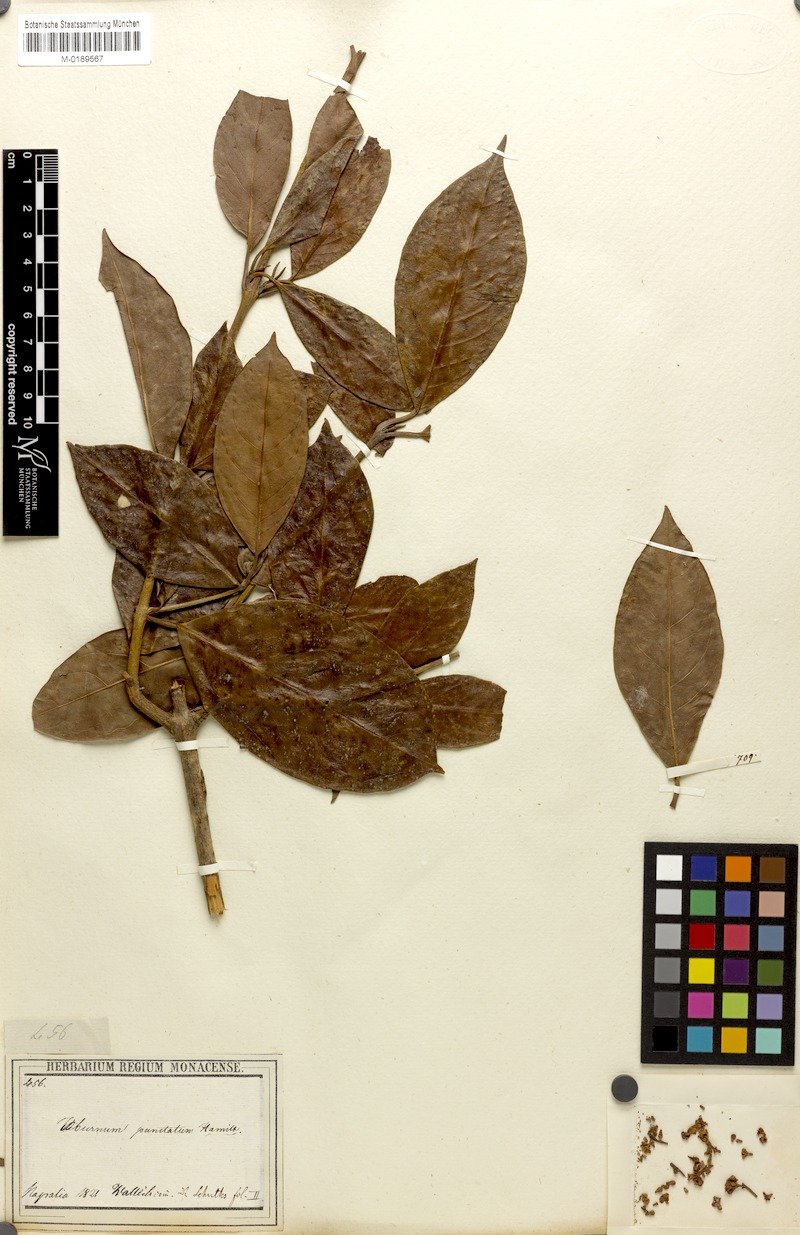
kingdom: Plantae
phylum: Tracheophyta
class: Magnoliopsida
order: Dipsacales
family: Viburnaceae
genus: Viburnum
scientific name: Viburnum punctatum
